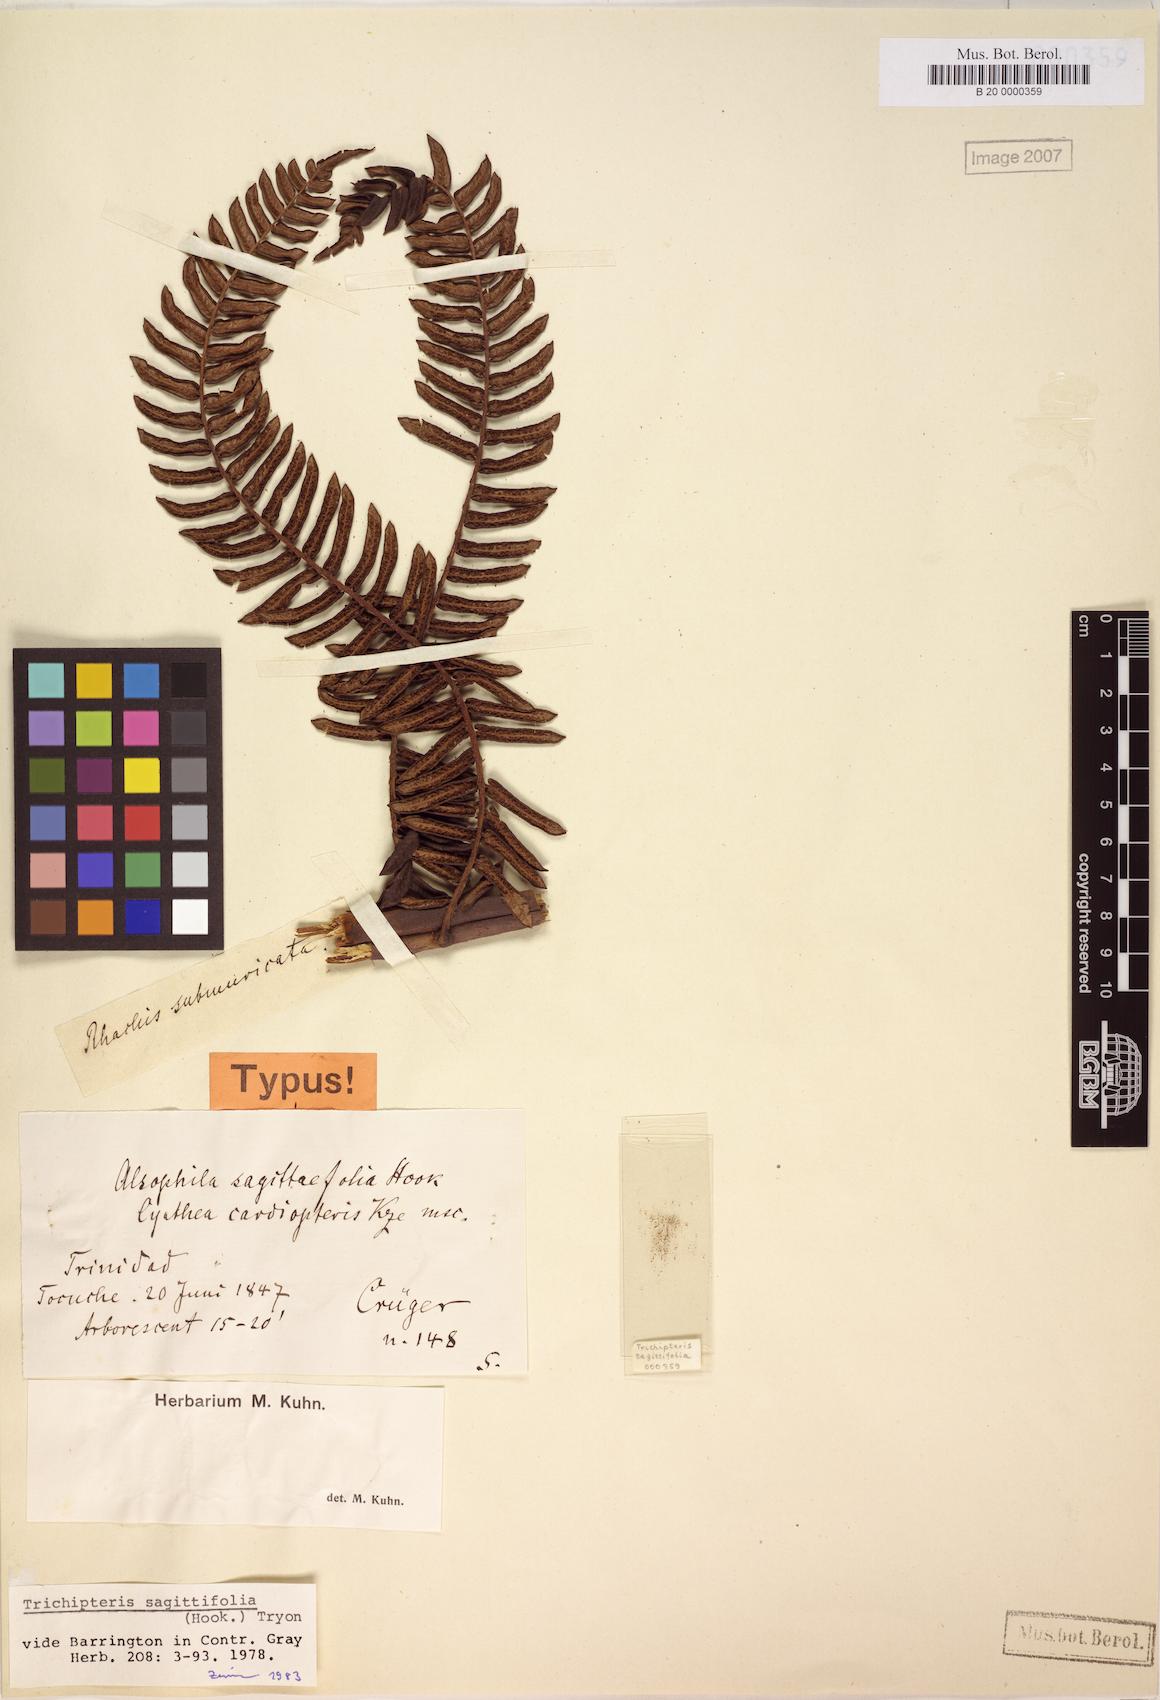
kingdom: Plantae
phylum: Tracheophyta
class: Polypodiopsida
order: Cyatheales
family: Cyatheaceae
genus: Cyathea
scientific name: Cyathea sagittifolia
